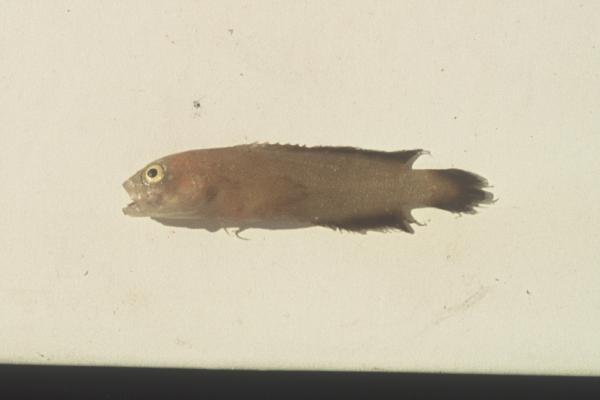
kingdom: Animalia
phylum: Chordata
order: Perciformes
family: Serranidae
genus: Pseudogramma
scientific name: Pseudogramma polyacantha
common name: Bold-spot soapfish
